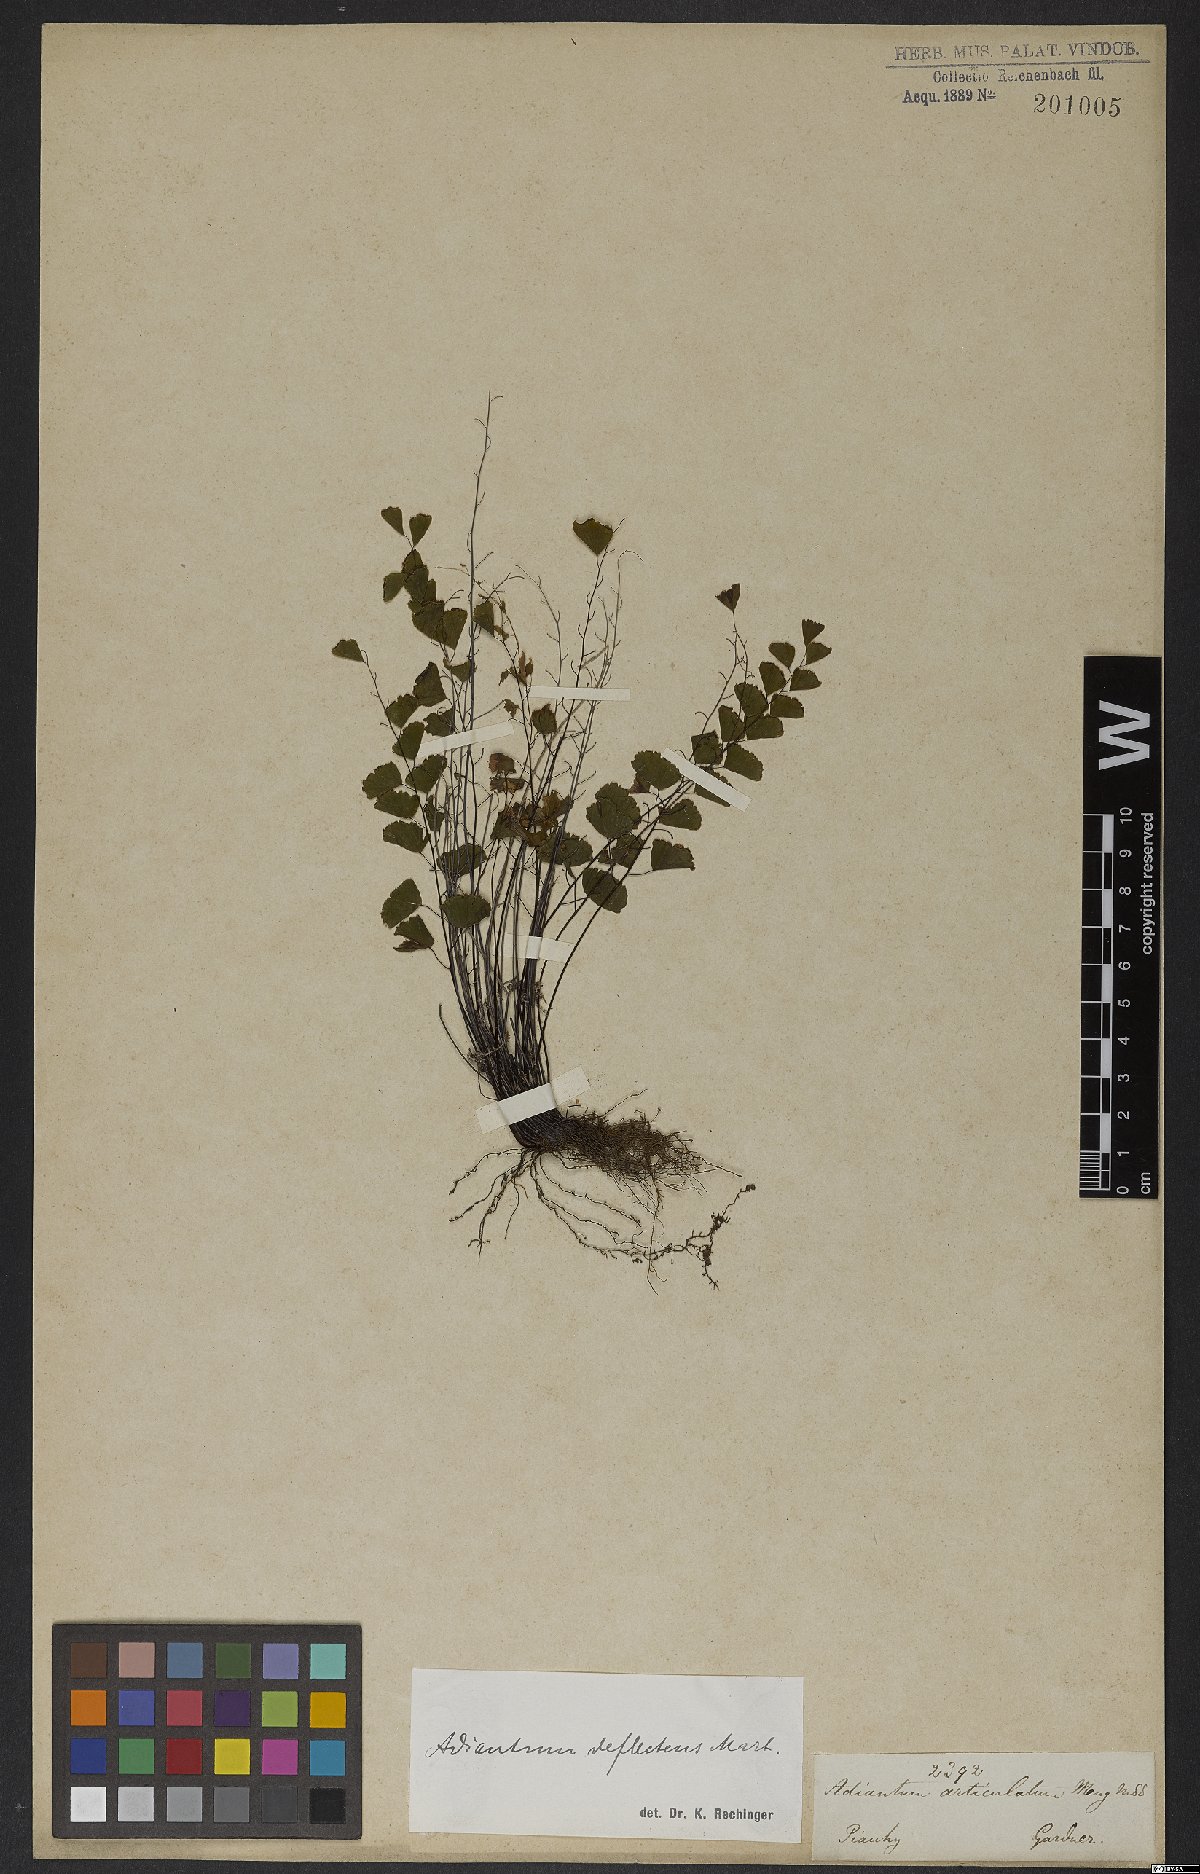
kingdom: Plantae
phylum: Tracheophyta
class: Polypodiopsida
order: Polypodiales
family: Pteridaceae
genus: Adiantum
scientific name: Adiantum deflectens
